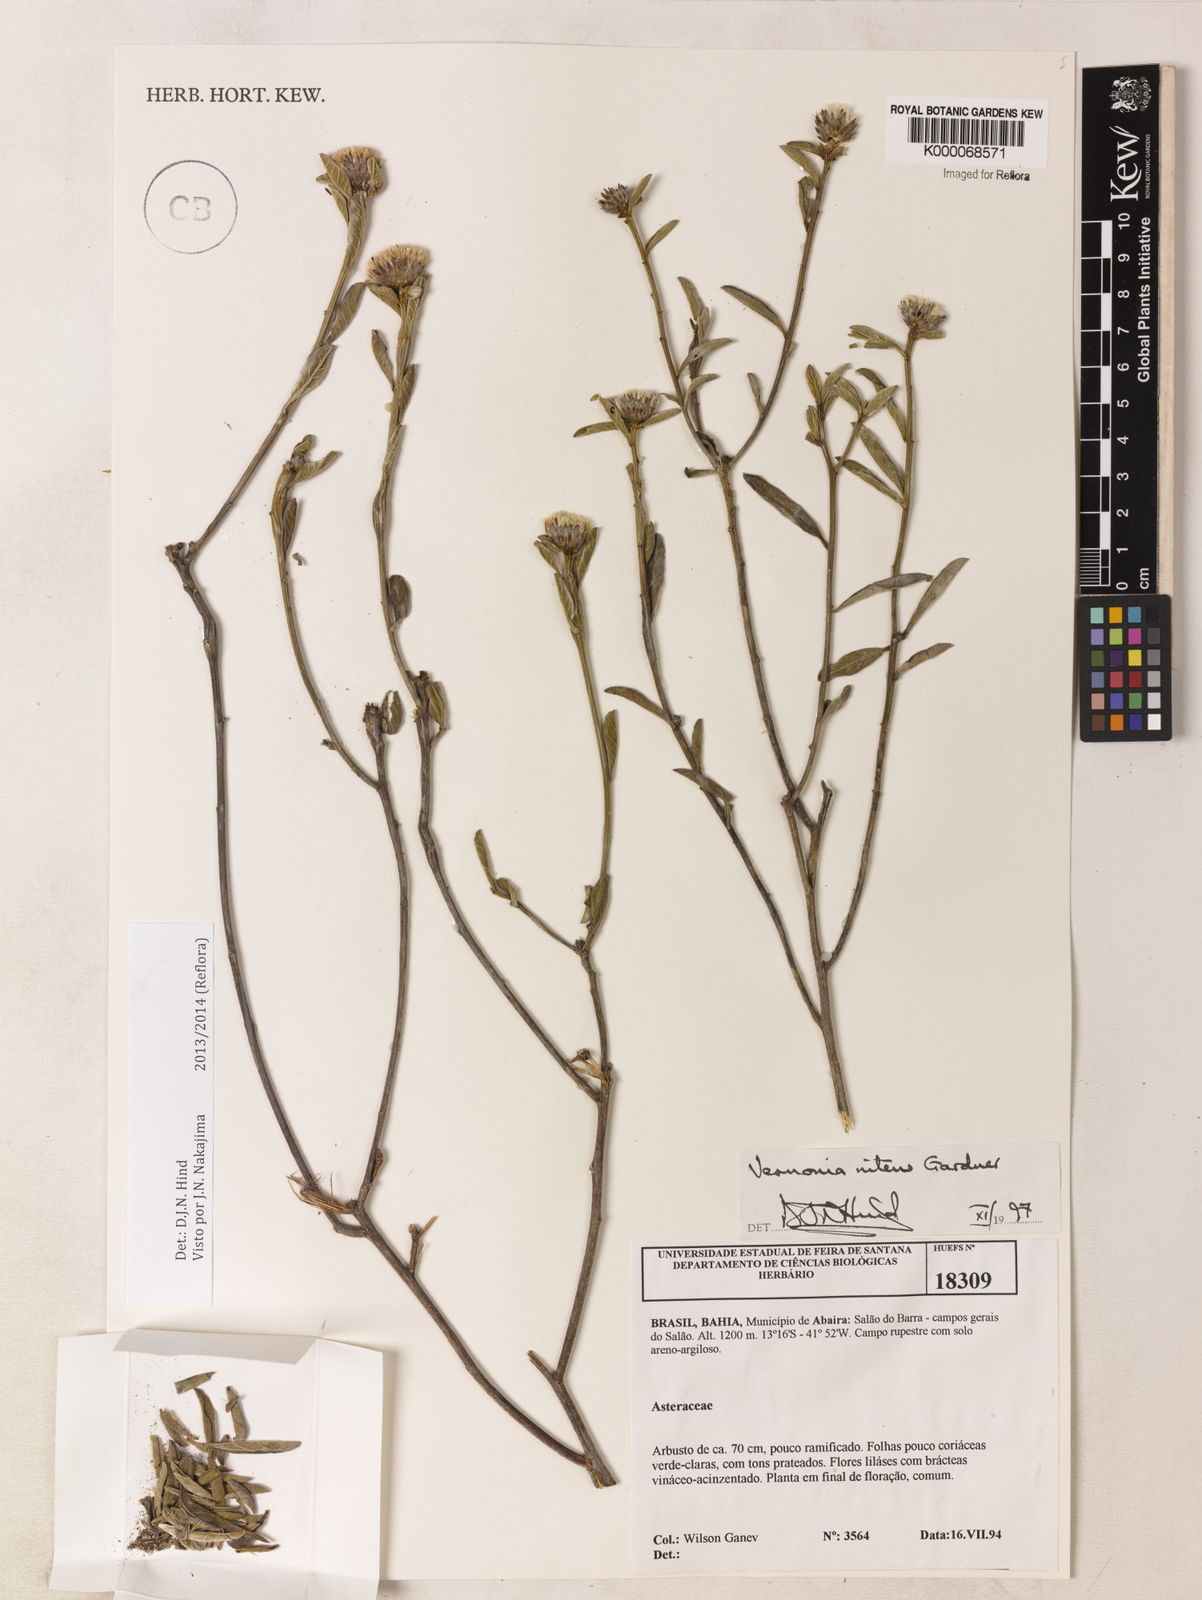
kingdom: Plantae
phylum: Tracheophyta
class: Magnoliopsida
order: Asterales
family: Asteraceae
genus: Lepidaploa
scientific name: Lepidaploa nitens
